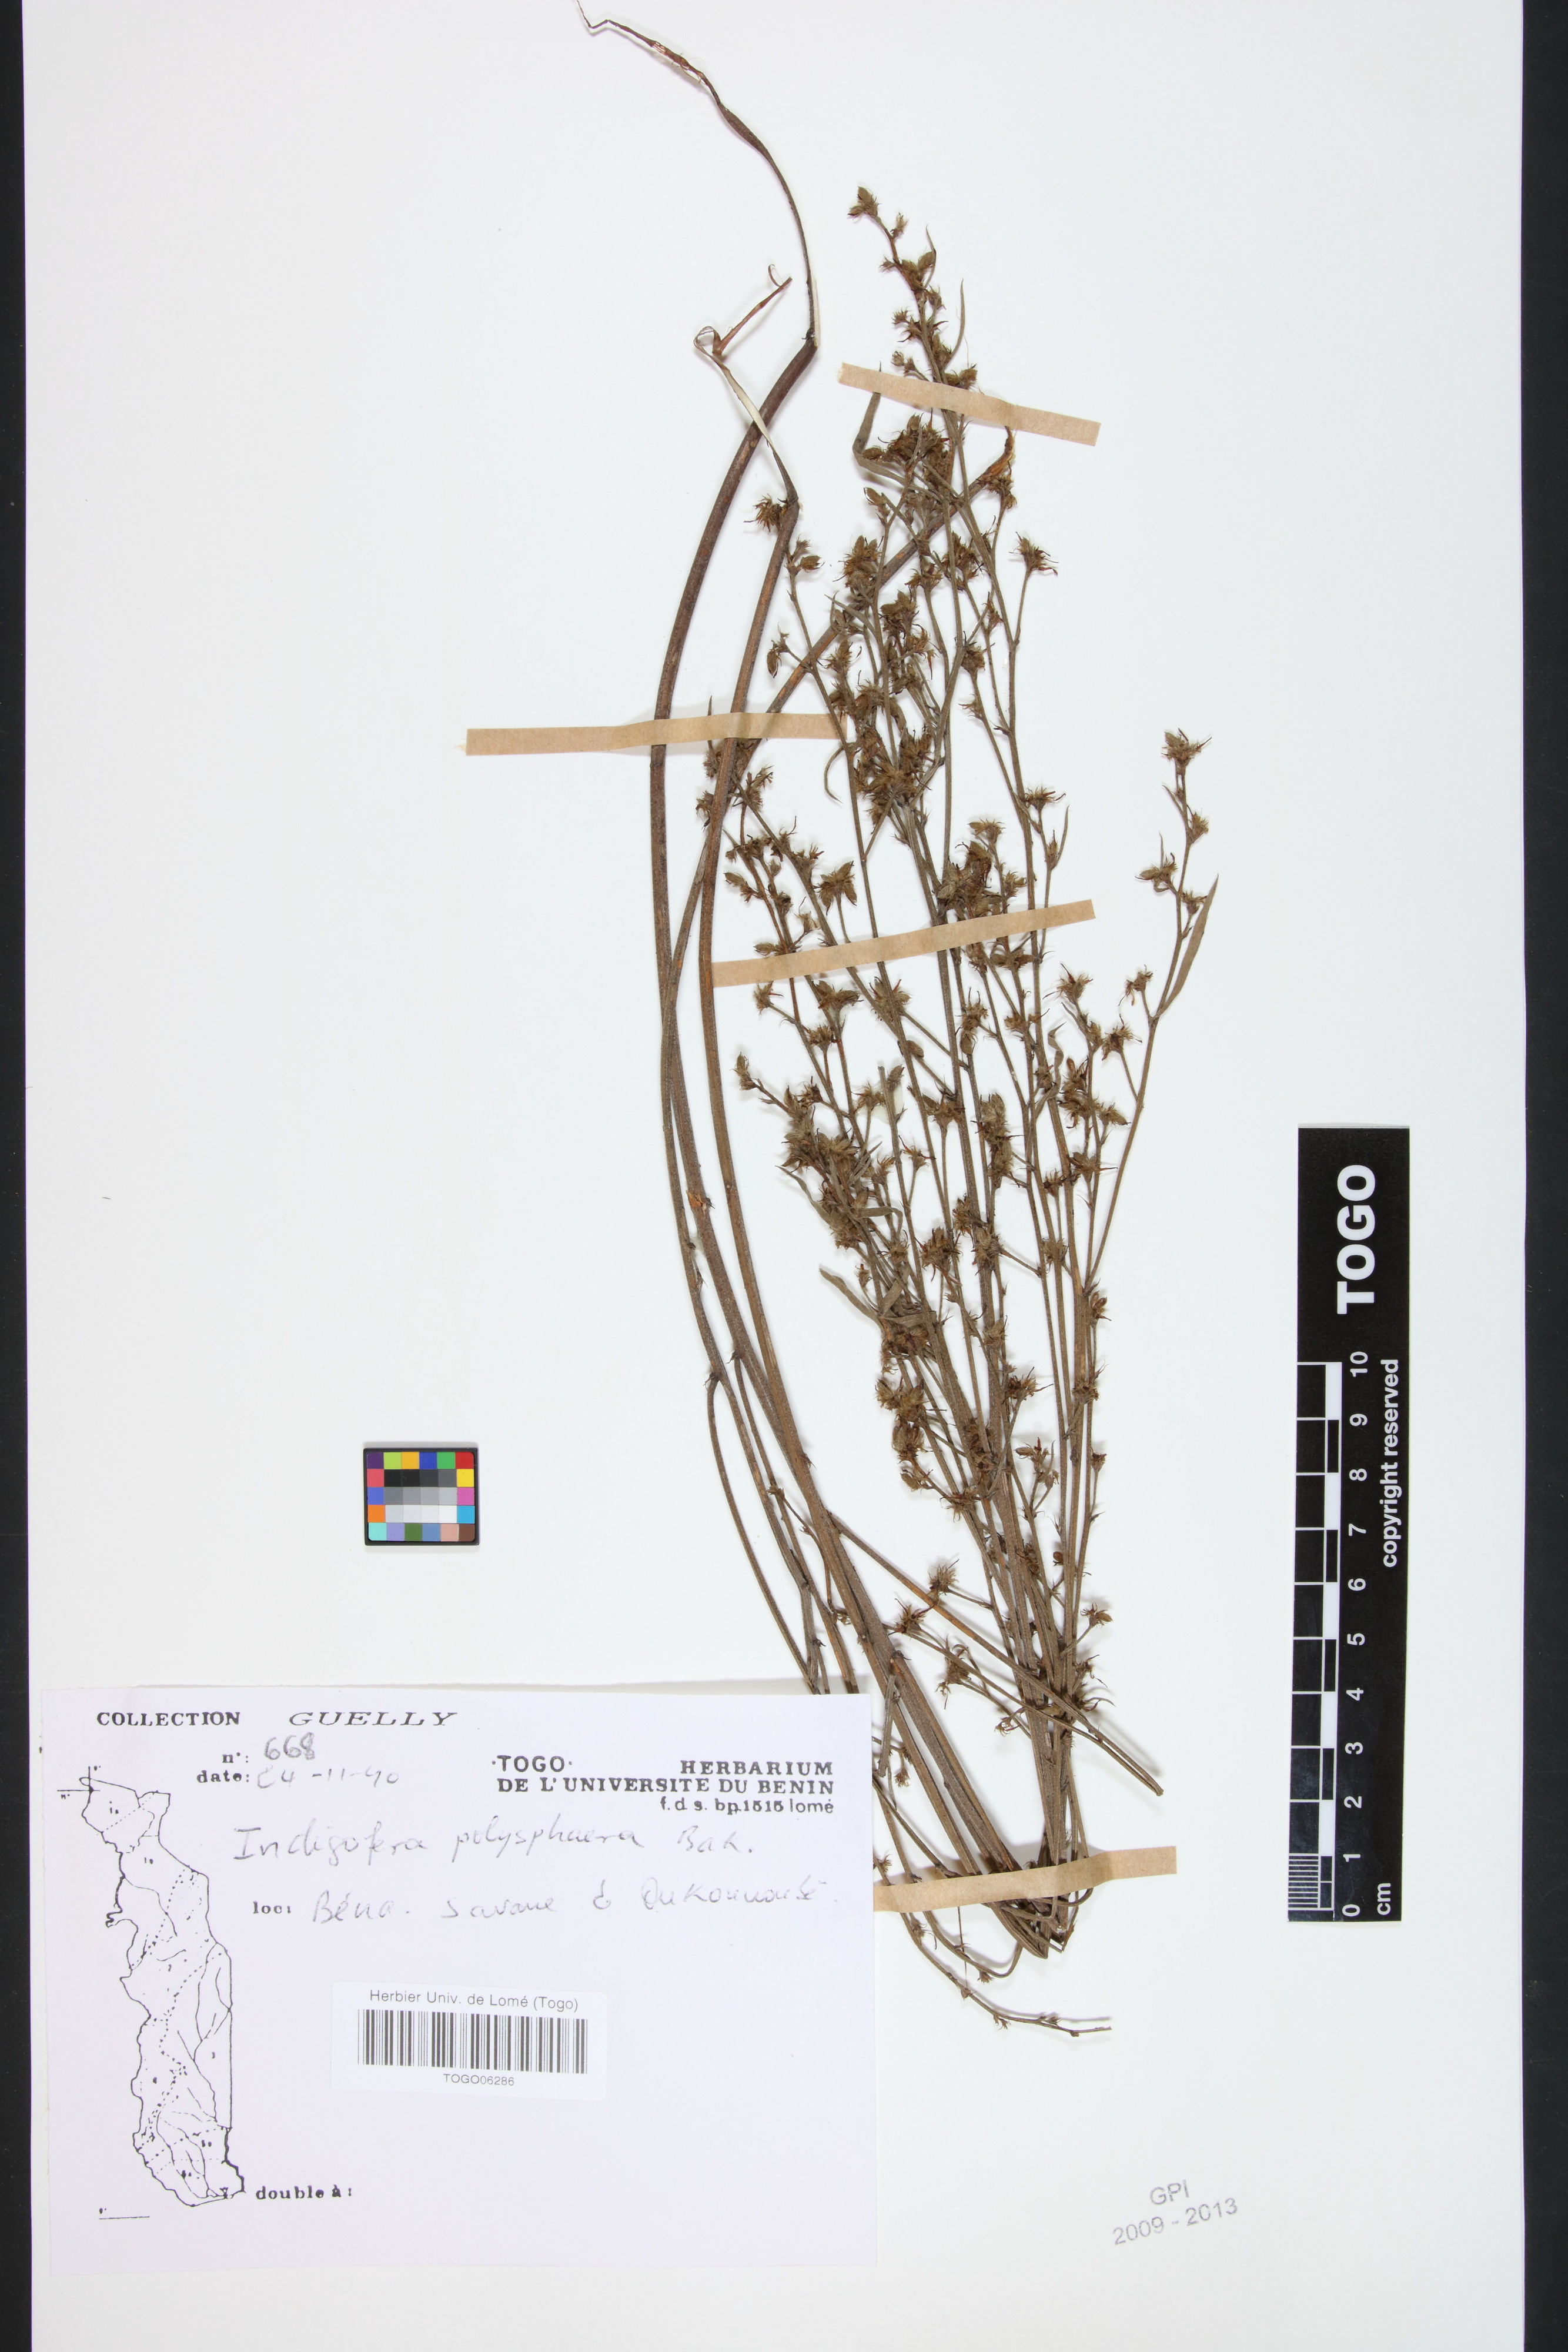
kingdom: Plantae
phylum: Tracheophyta
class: Magnoliopsida
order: Fabales
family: Fabaceae
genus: Indigofera
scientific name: Indigofera polysphaera
